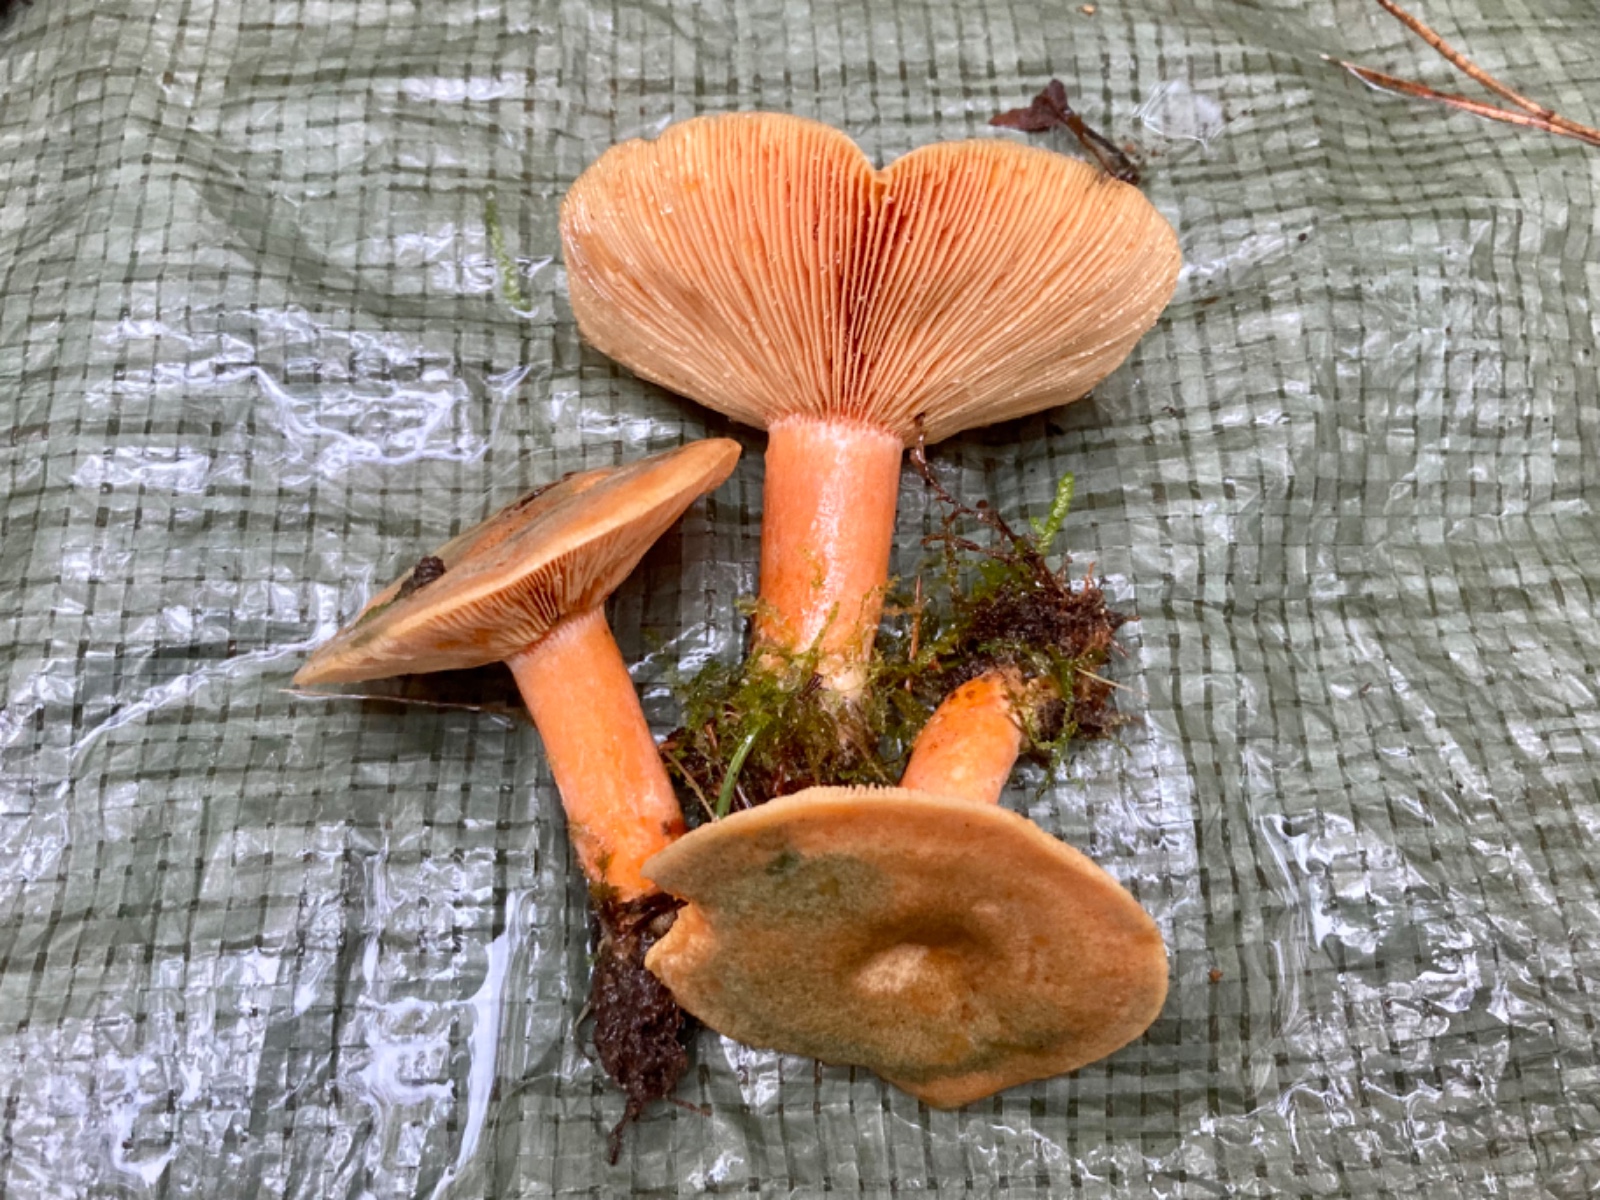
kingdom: Fungi
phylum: Basidiomycota
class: Agaricomycetes
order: Russulales
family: Russulaceae
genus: Lactarius
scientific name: Lactarius deterrimus
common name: gran-mælkehat
